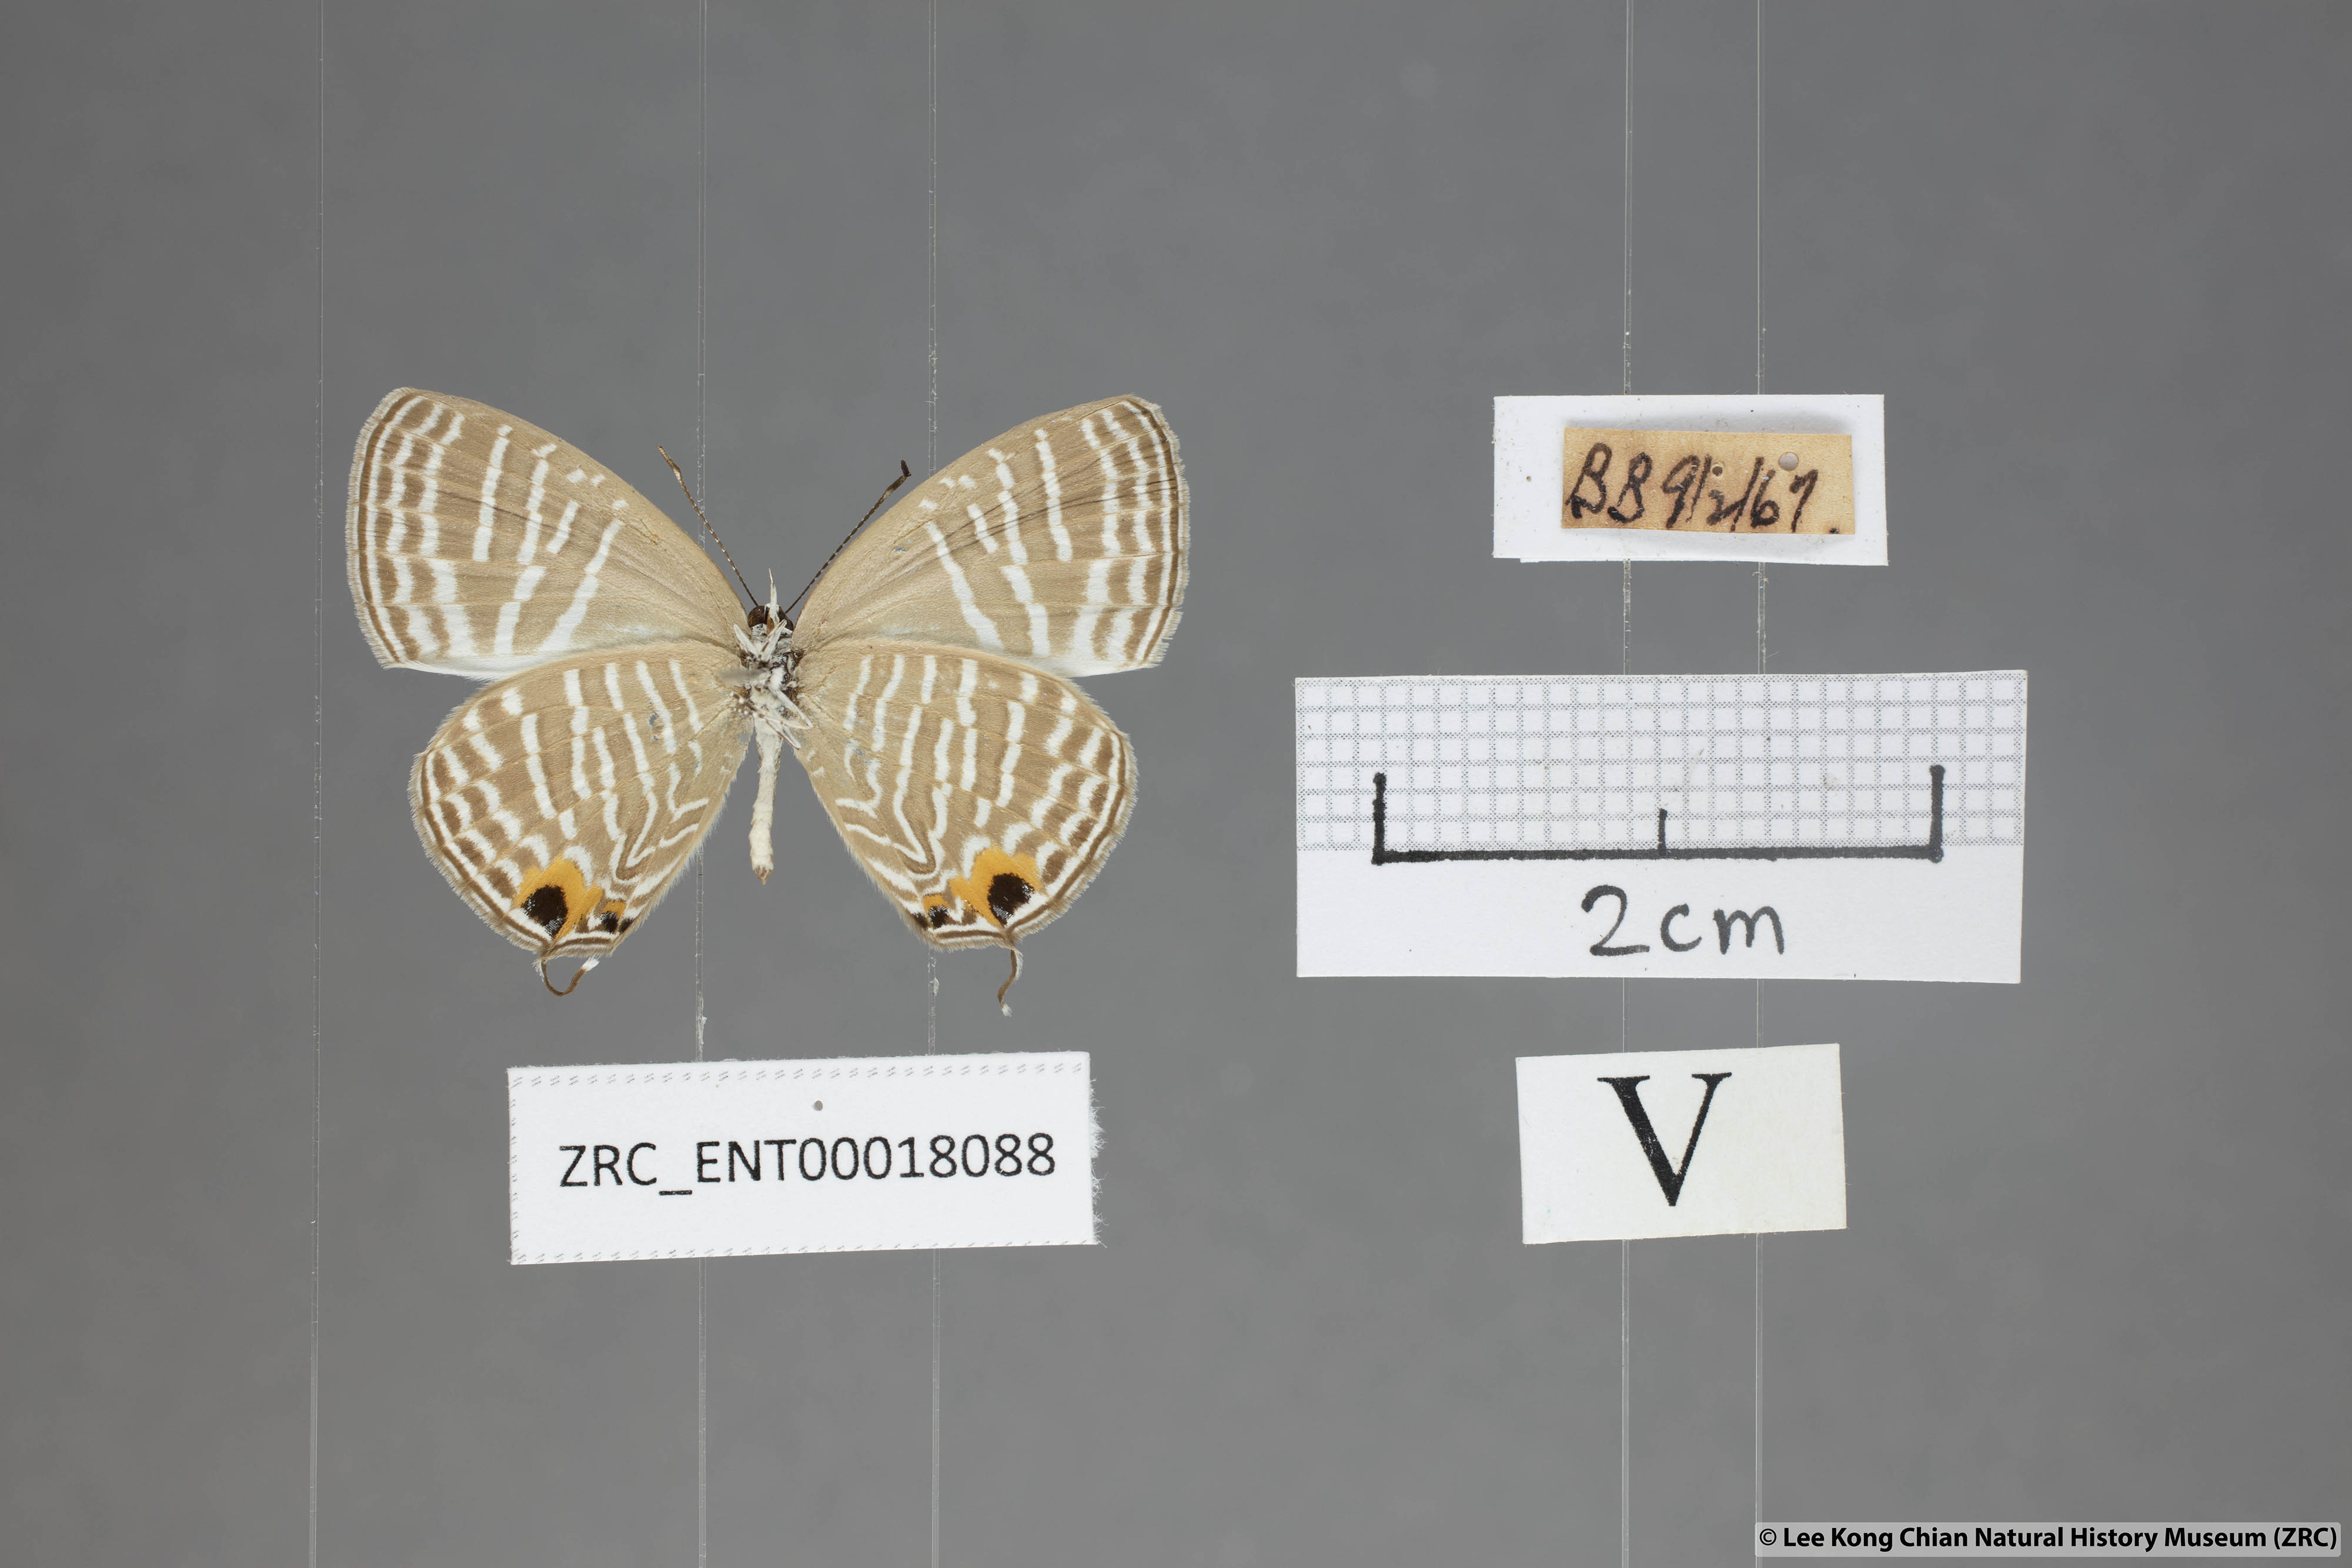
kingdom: Animalia
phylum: Arthropoda
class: Insecta
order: Lepidoptera
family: Lycaenidae
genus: Jamides
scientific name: Jamides celeno
